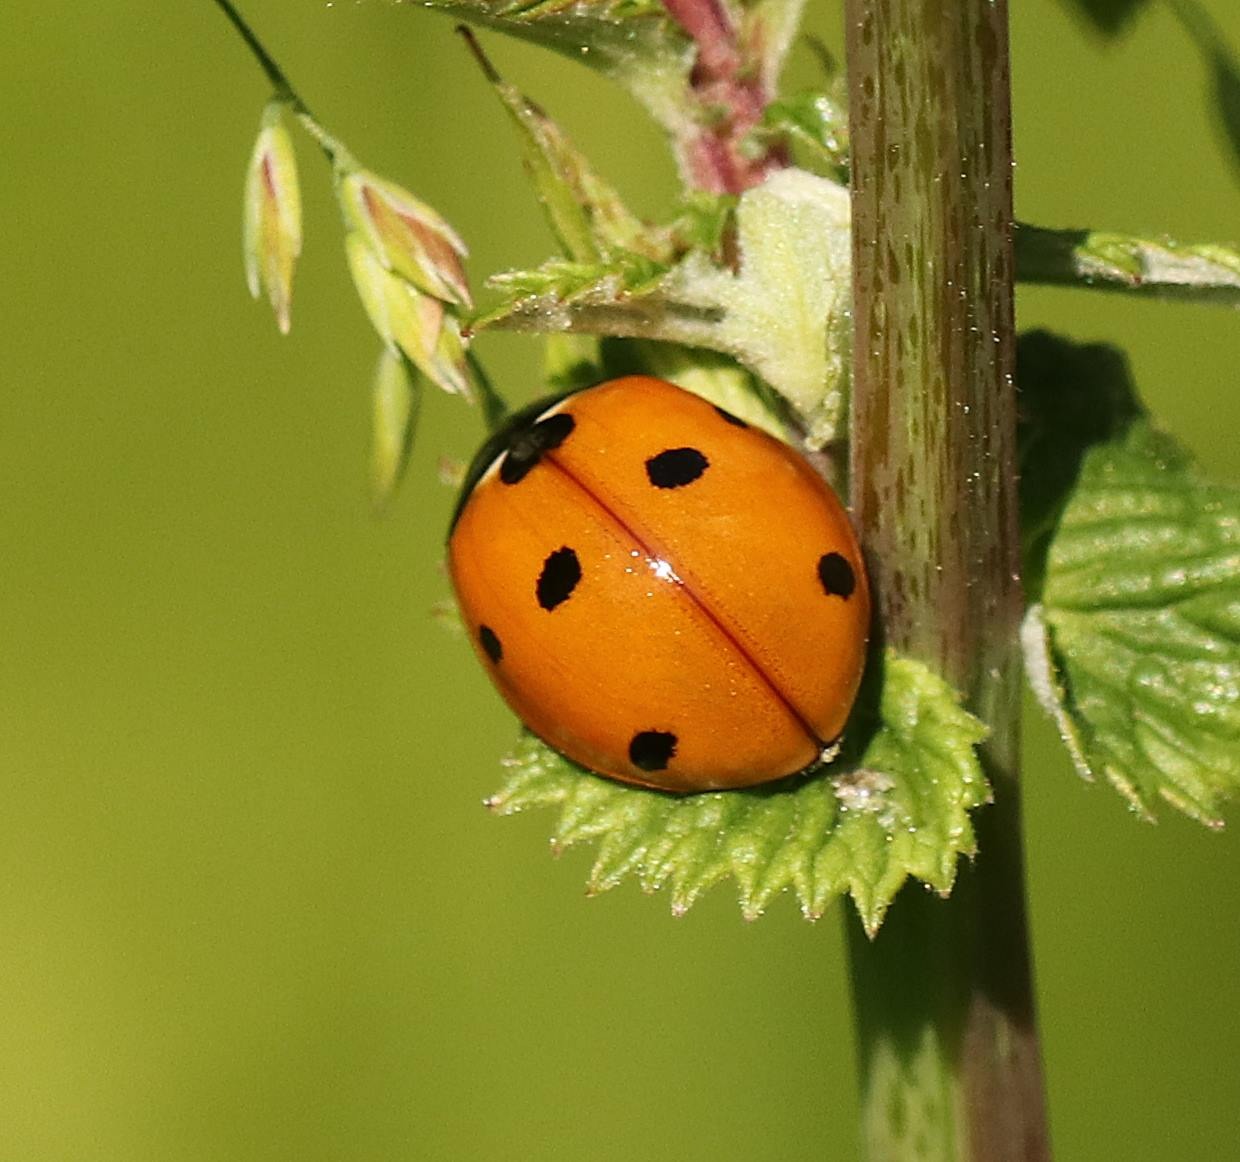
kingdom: Animalia
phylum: Arthropoda
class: Insecta
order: Coleoptera
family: Coccinellidae
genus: Coccinella
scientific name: Coccinella septempunctata
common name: Syvplettet mariehøne
